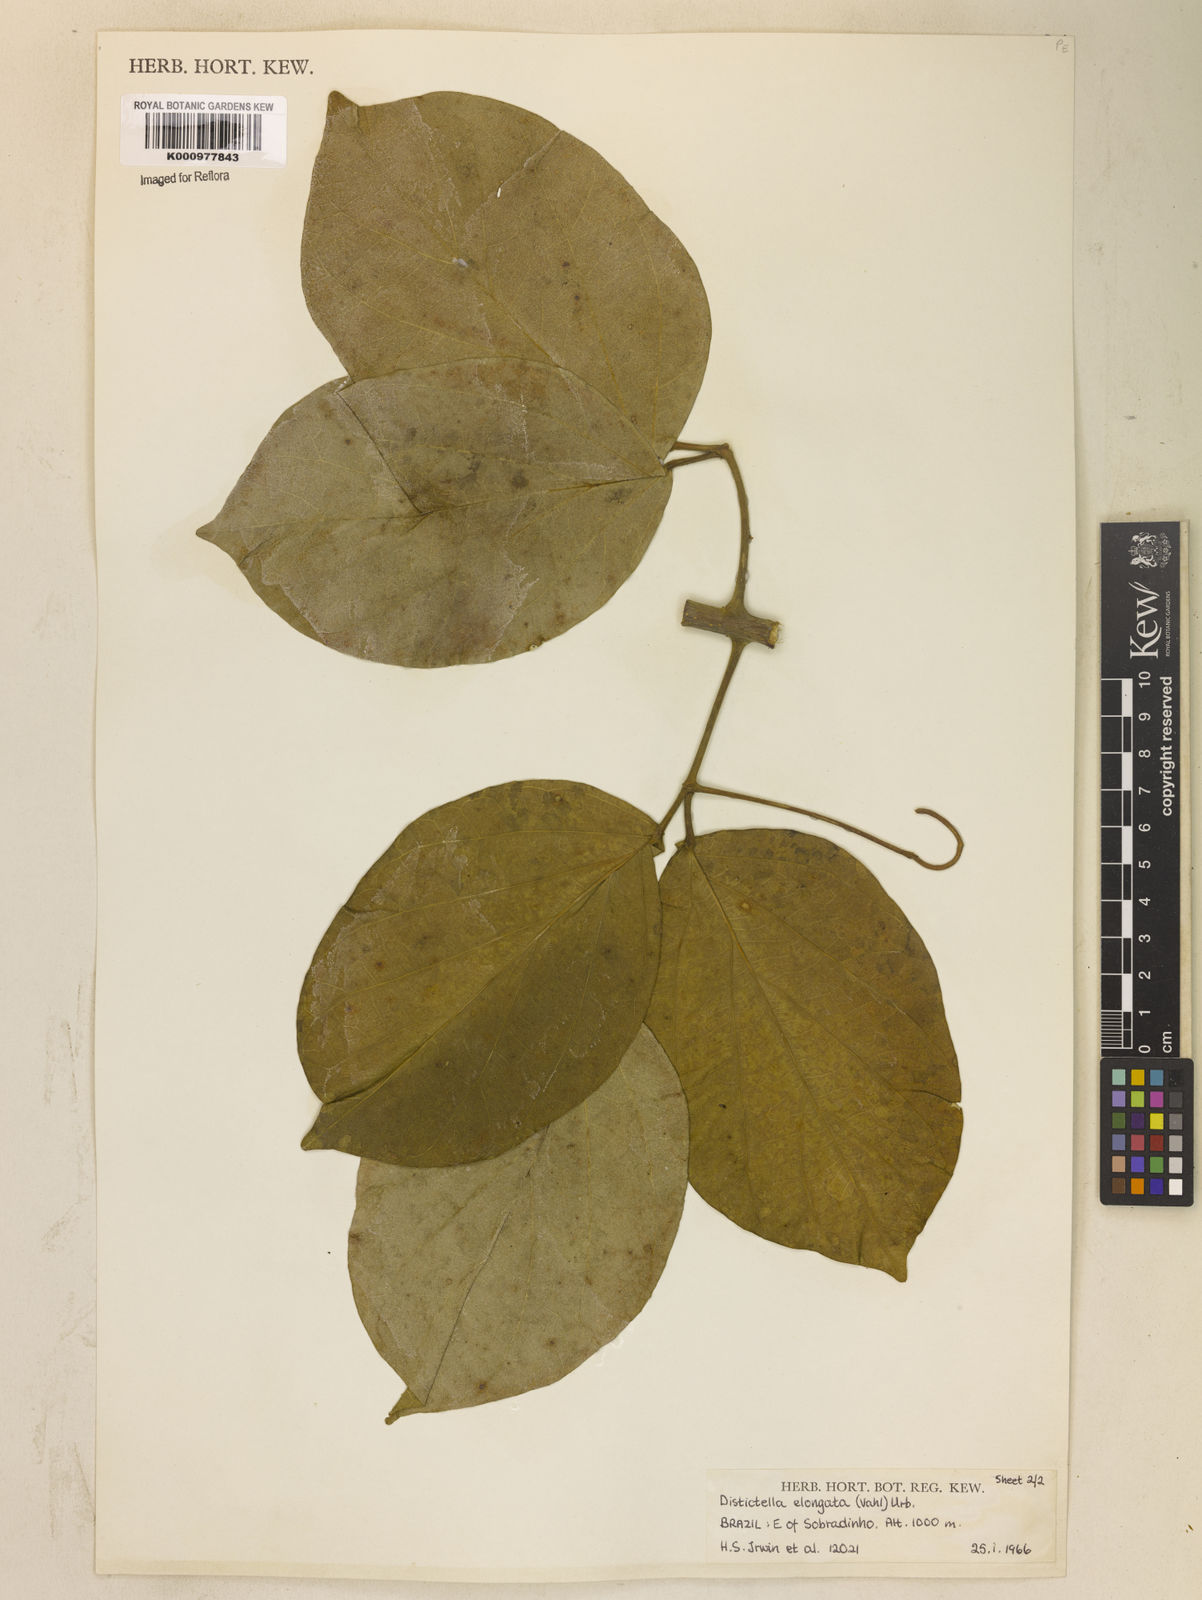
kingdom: Plantae
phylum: Tracheophyta
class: Magnoliopsida
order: Lamiales
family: Bignoniaceae
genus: Amphilophium
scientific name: Amphilophium elongatum
